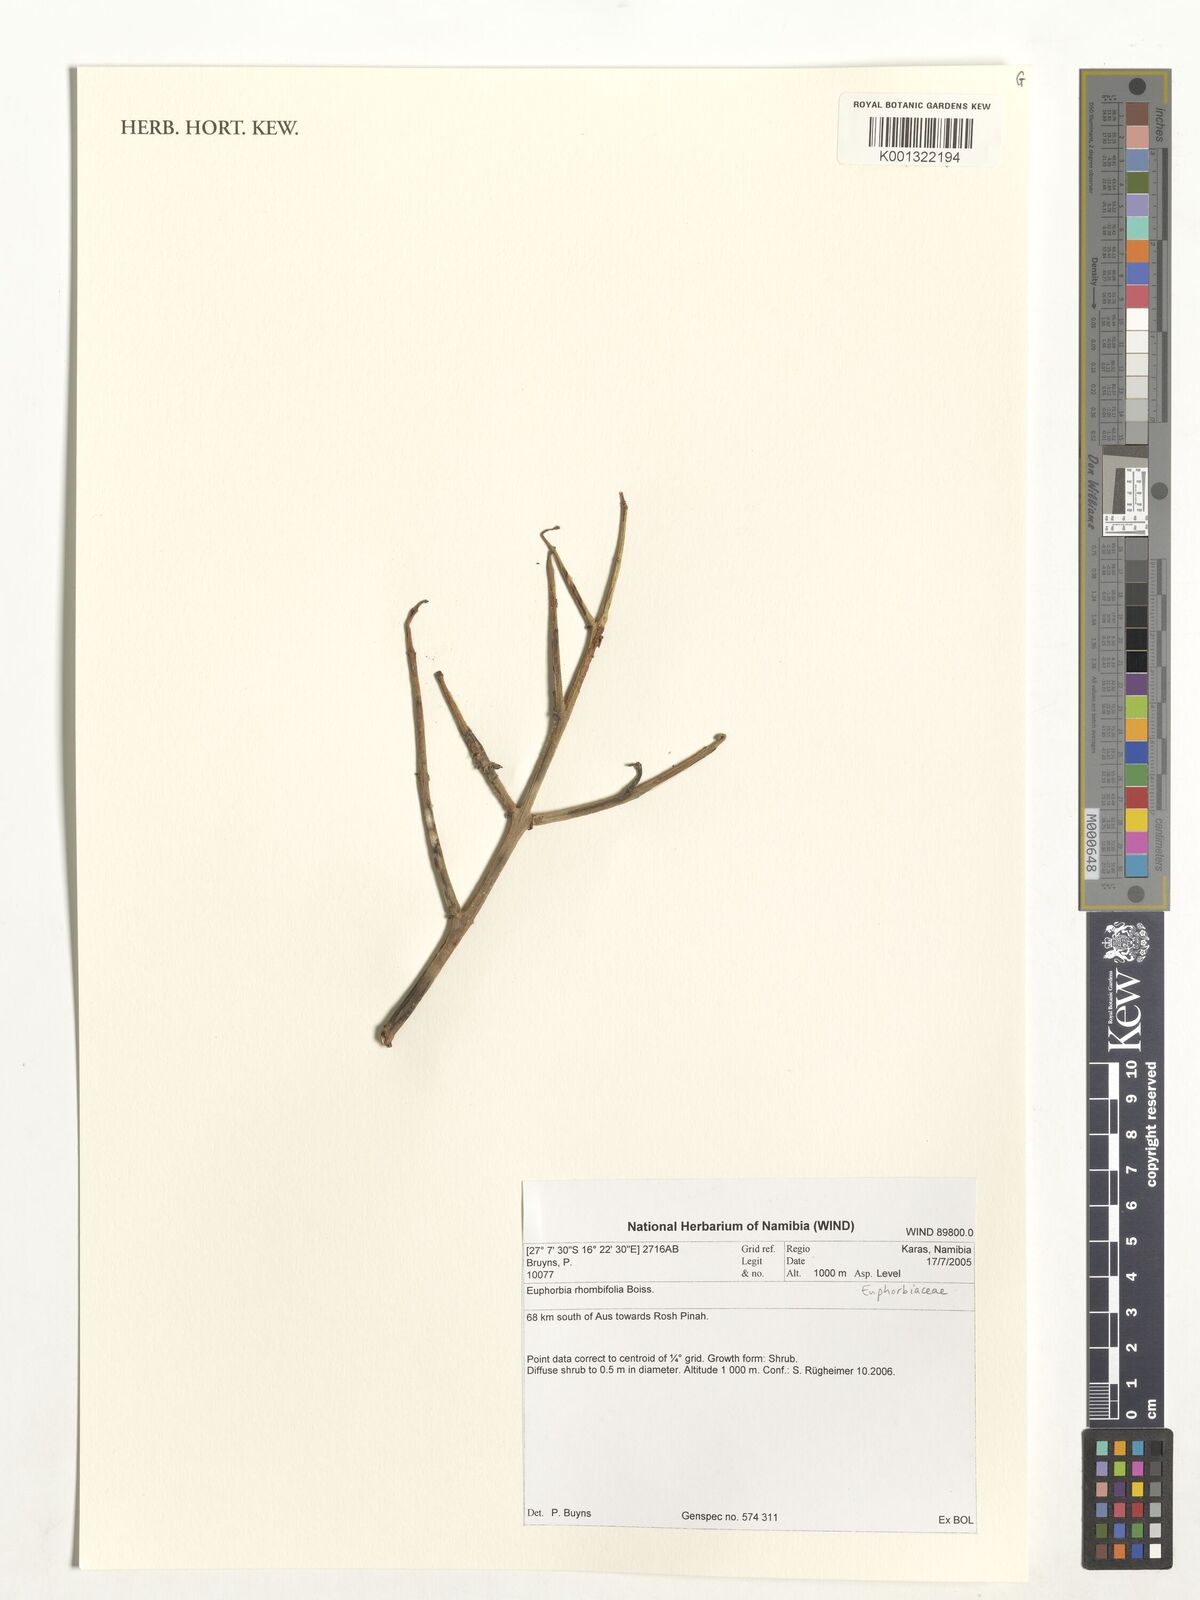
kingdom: Plantae
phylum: Tracheophyta
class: Magnoliopsida
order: Malpighiales
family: Euphorbiaceae
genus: Euphorbia
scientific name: Euphorbia rhombifolia
